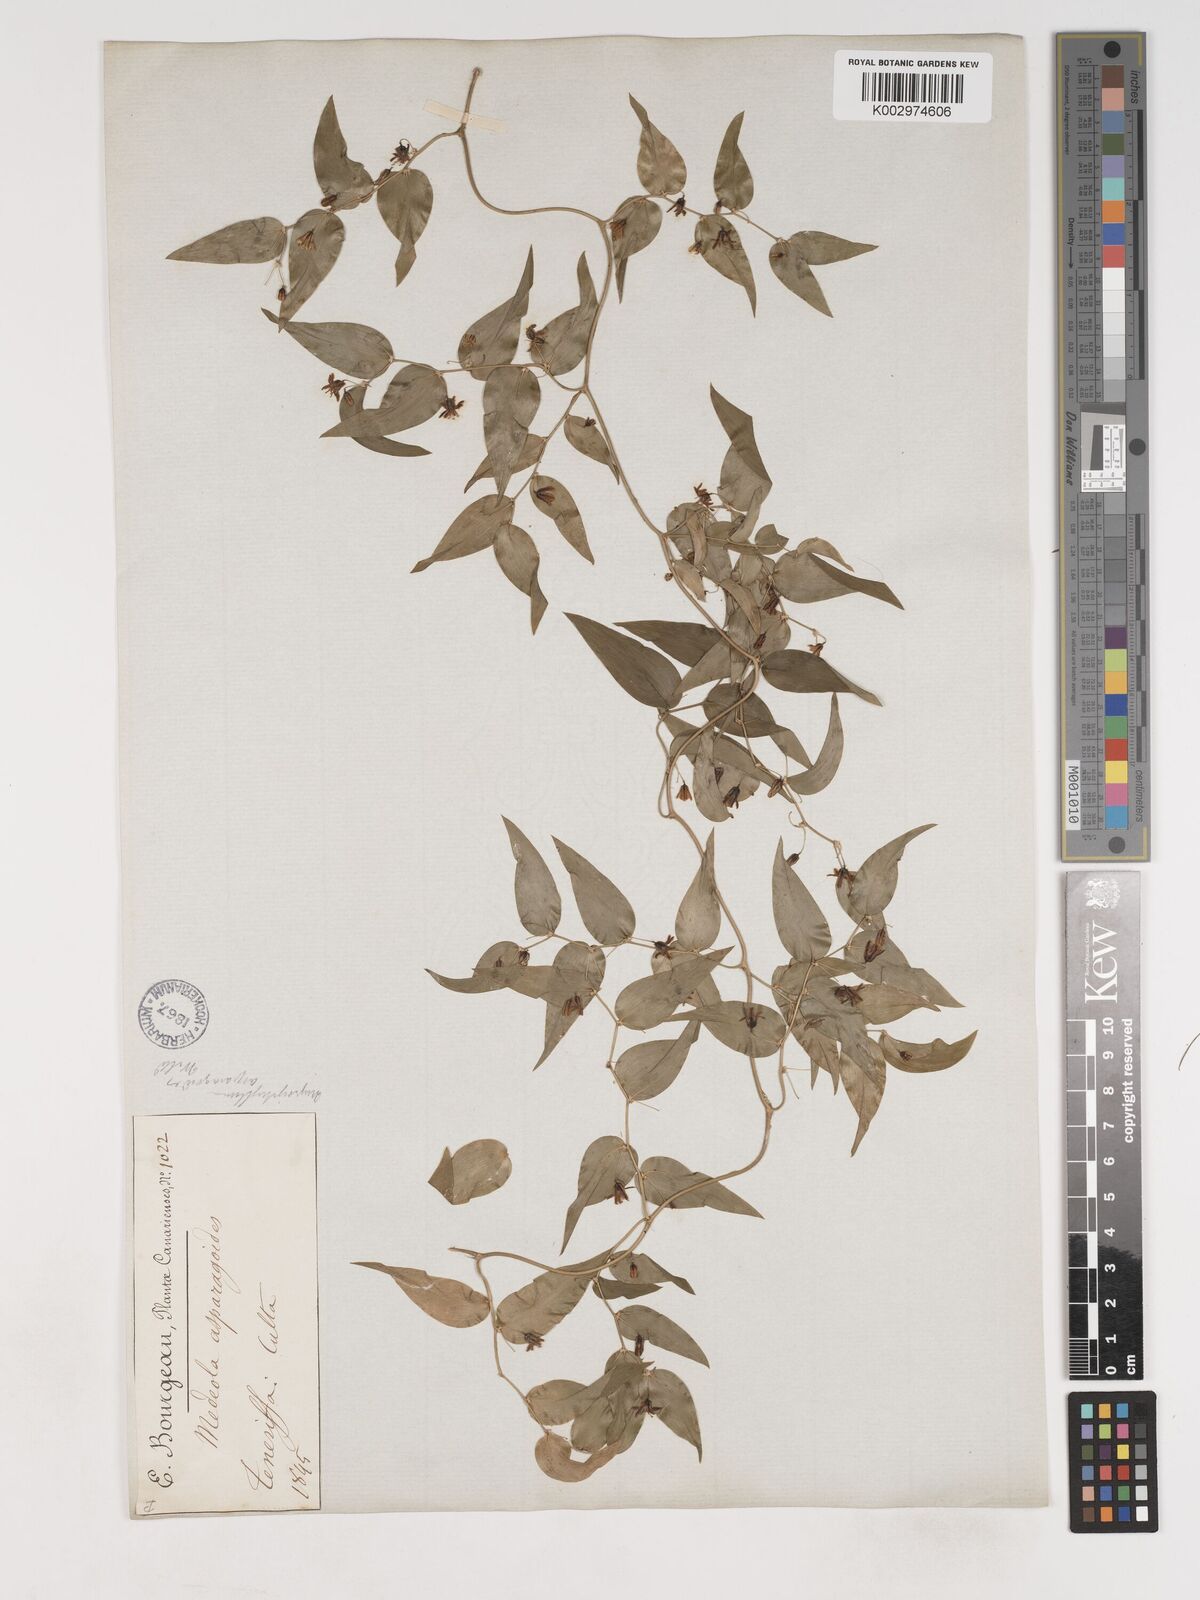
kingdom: Plantae
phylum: Tracheophyta
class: Liliopsida
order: Asparagales
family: Asparagaceae
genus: Asparagus
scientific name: Asparagus asparagoides
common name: African asparagus fern
